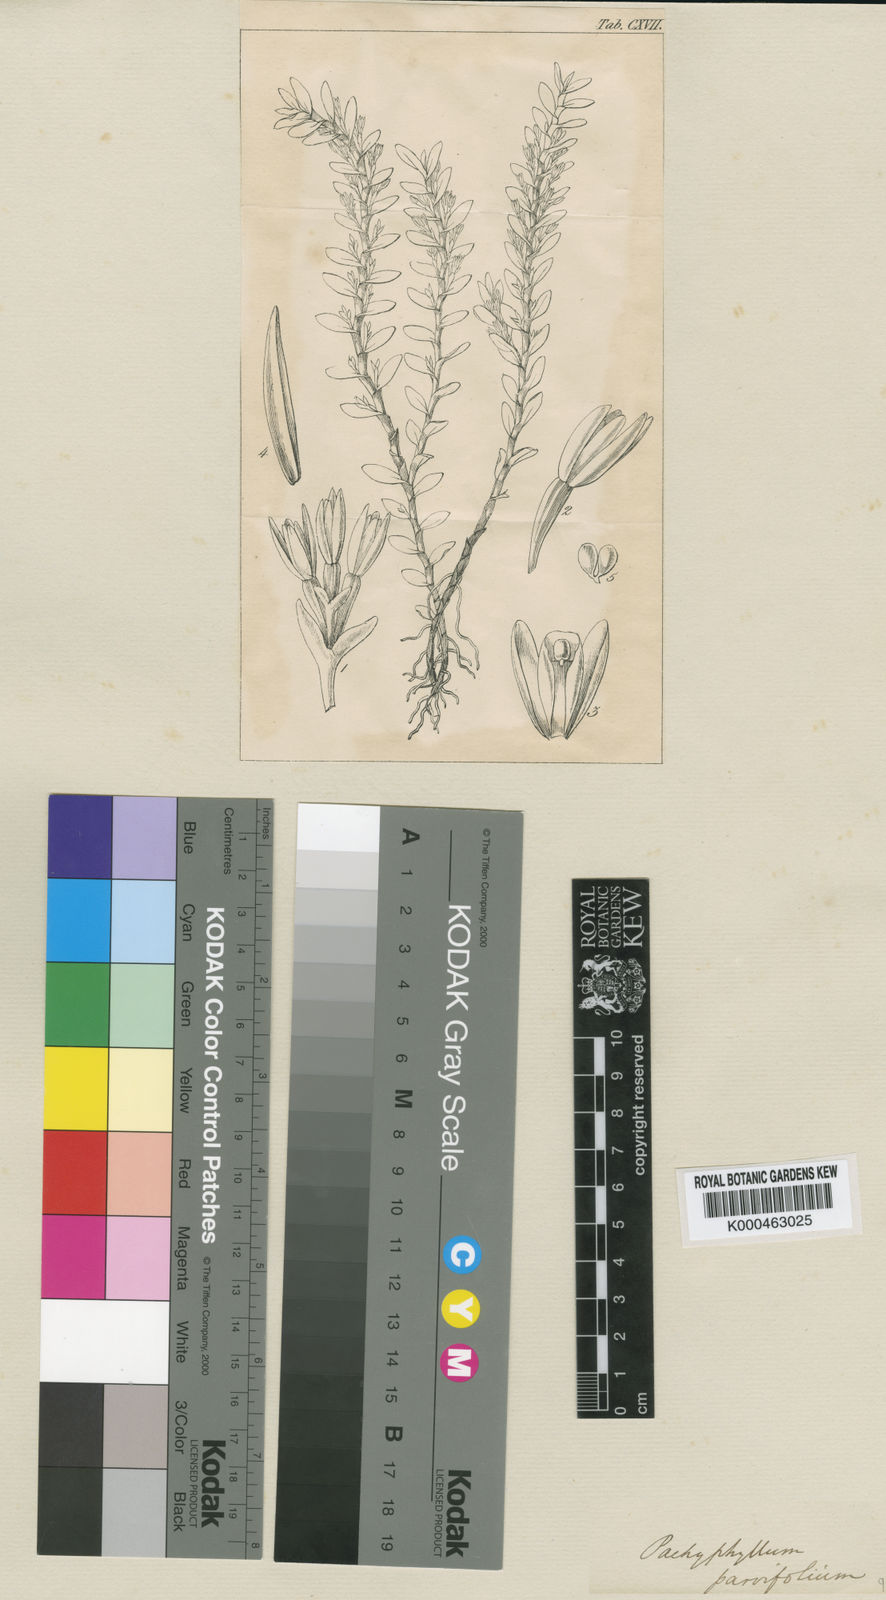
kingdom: Plantae
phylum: Tracheophyta
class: Liliopsida
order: Asparagales
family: Orchidaceae
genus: Fernandezia
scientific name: Fernandezia parvifolia
